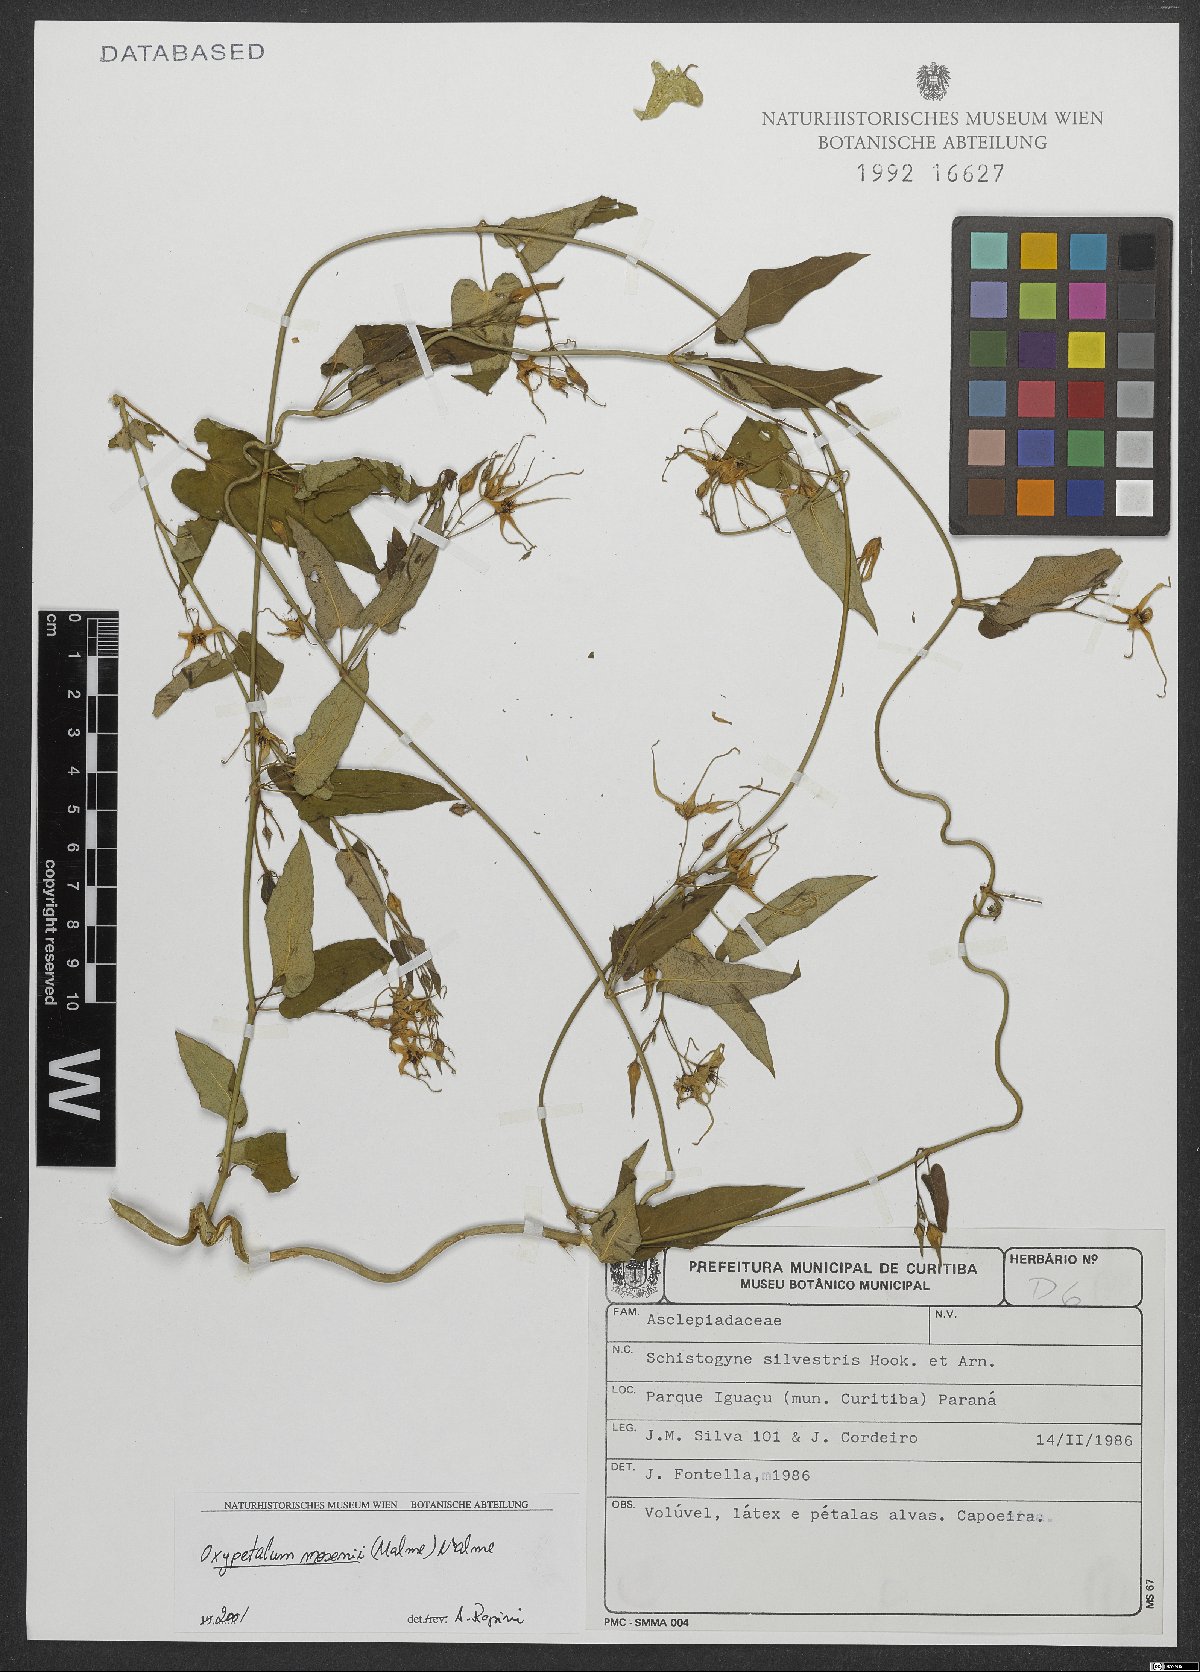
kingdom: Plantae
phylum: Tracheophyta
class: Magnoliopsida
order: Gentianales
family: Apocynaceae
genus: Oxypetalum
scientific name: Oxypetalum mosenii
